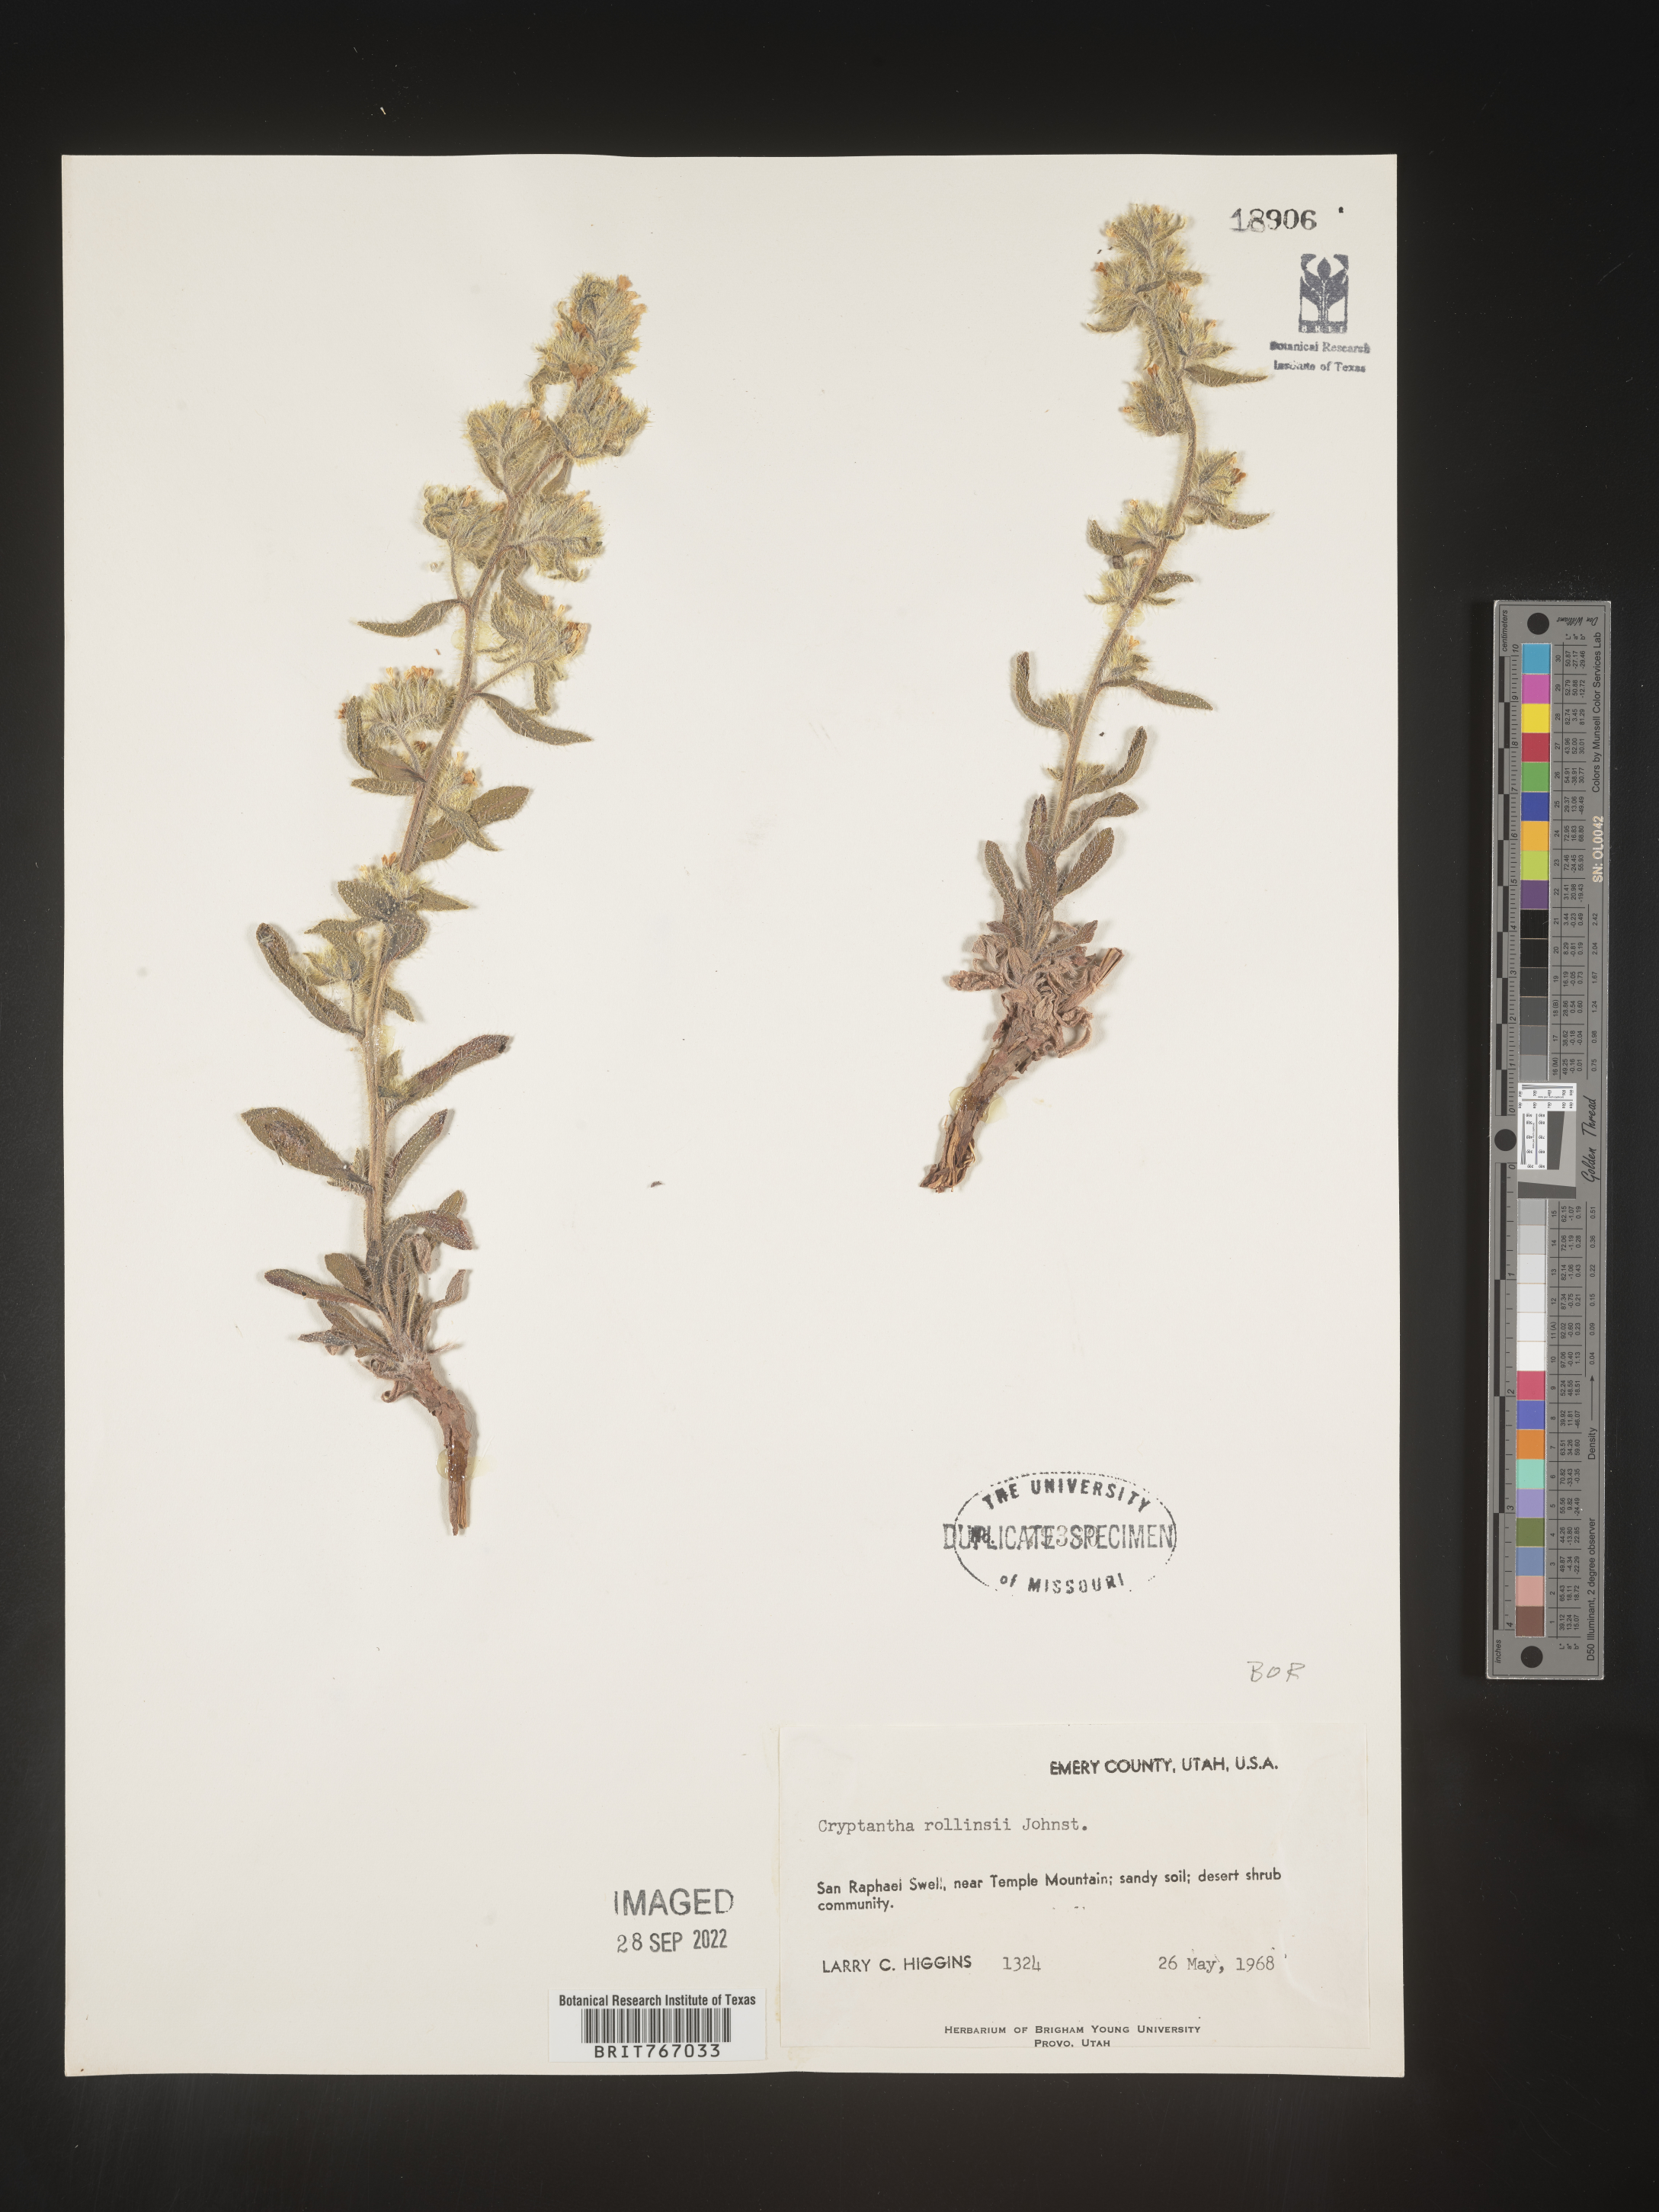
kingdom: Plantae
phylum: Tracheophyta
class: Magnoliopsida
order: Boraginales
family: Boraginaceae
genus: Cryptantha
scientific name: Cryptantha
